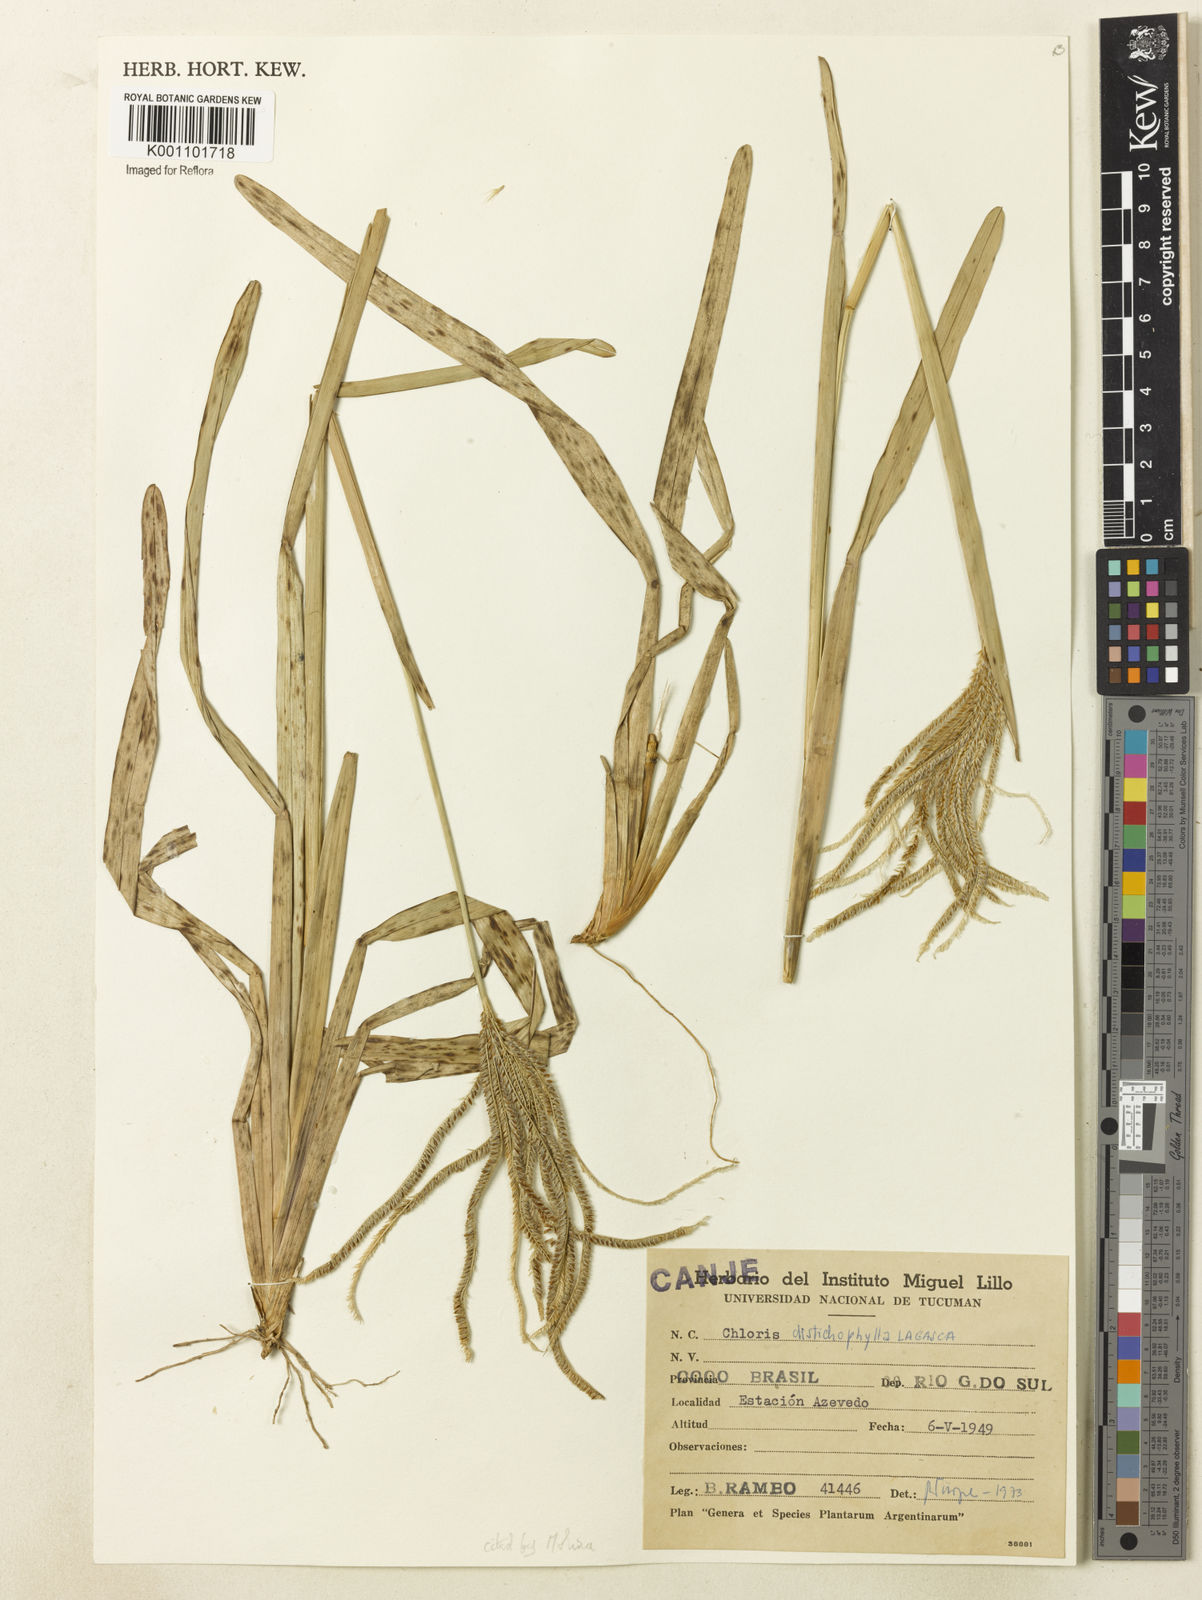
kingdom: Plantae
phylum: Tracheophyta
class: Liliopsida
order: Poales
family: Poaceae
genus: Eustachys
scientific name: Eustachys distichophylla
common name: Weeping fingergrass
